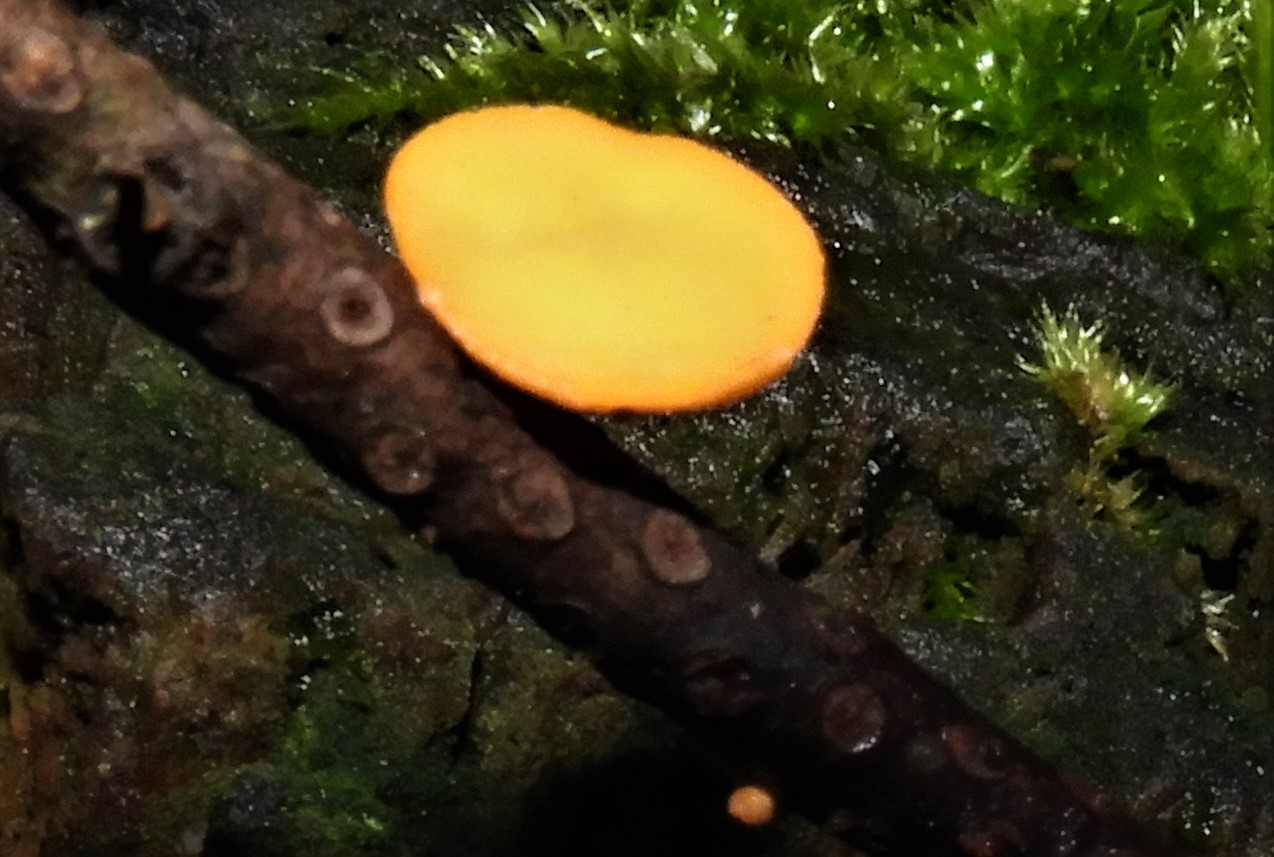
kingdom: Fungi
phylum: Ascomycota
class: Pezizomycetes
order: Pezizales
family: Sarcoscyphaceae
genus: Pithya
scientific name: Pithya vulgaris
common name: stor dukatbæger
